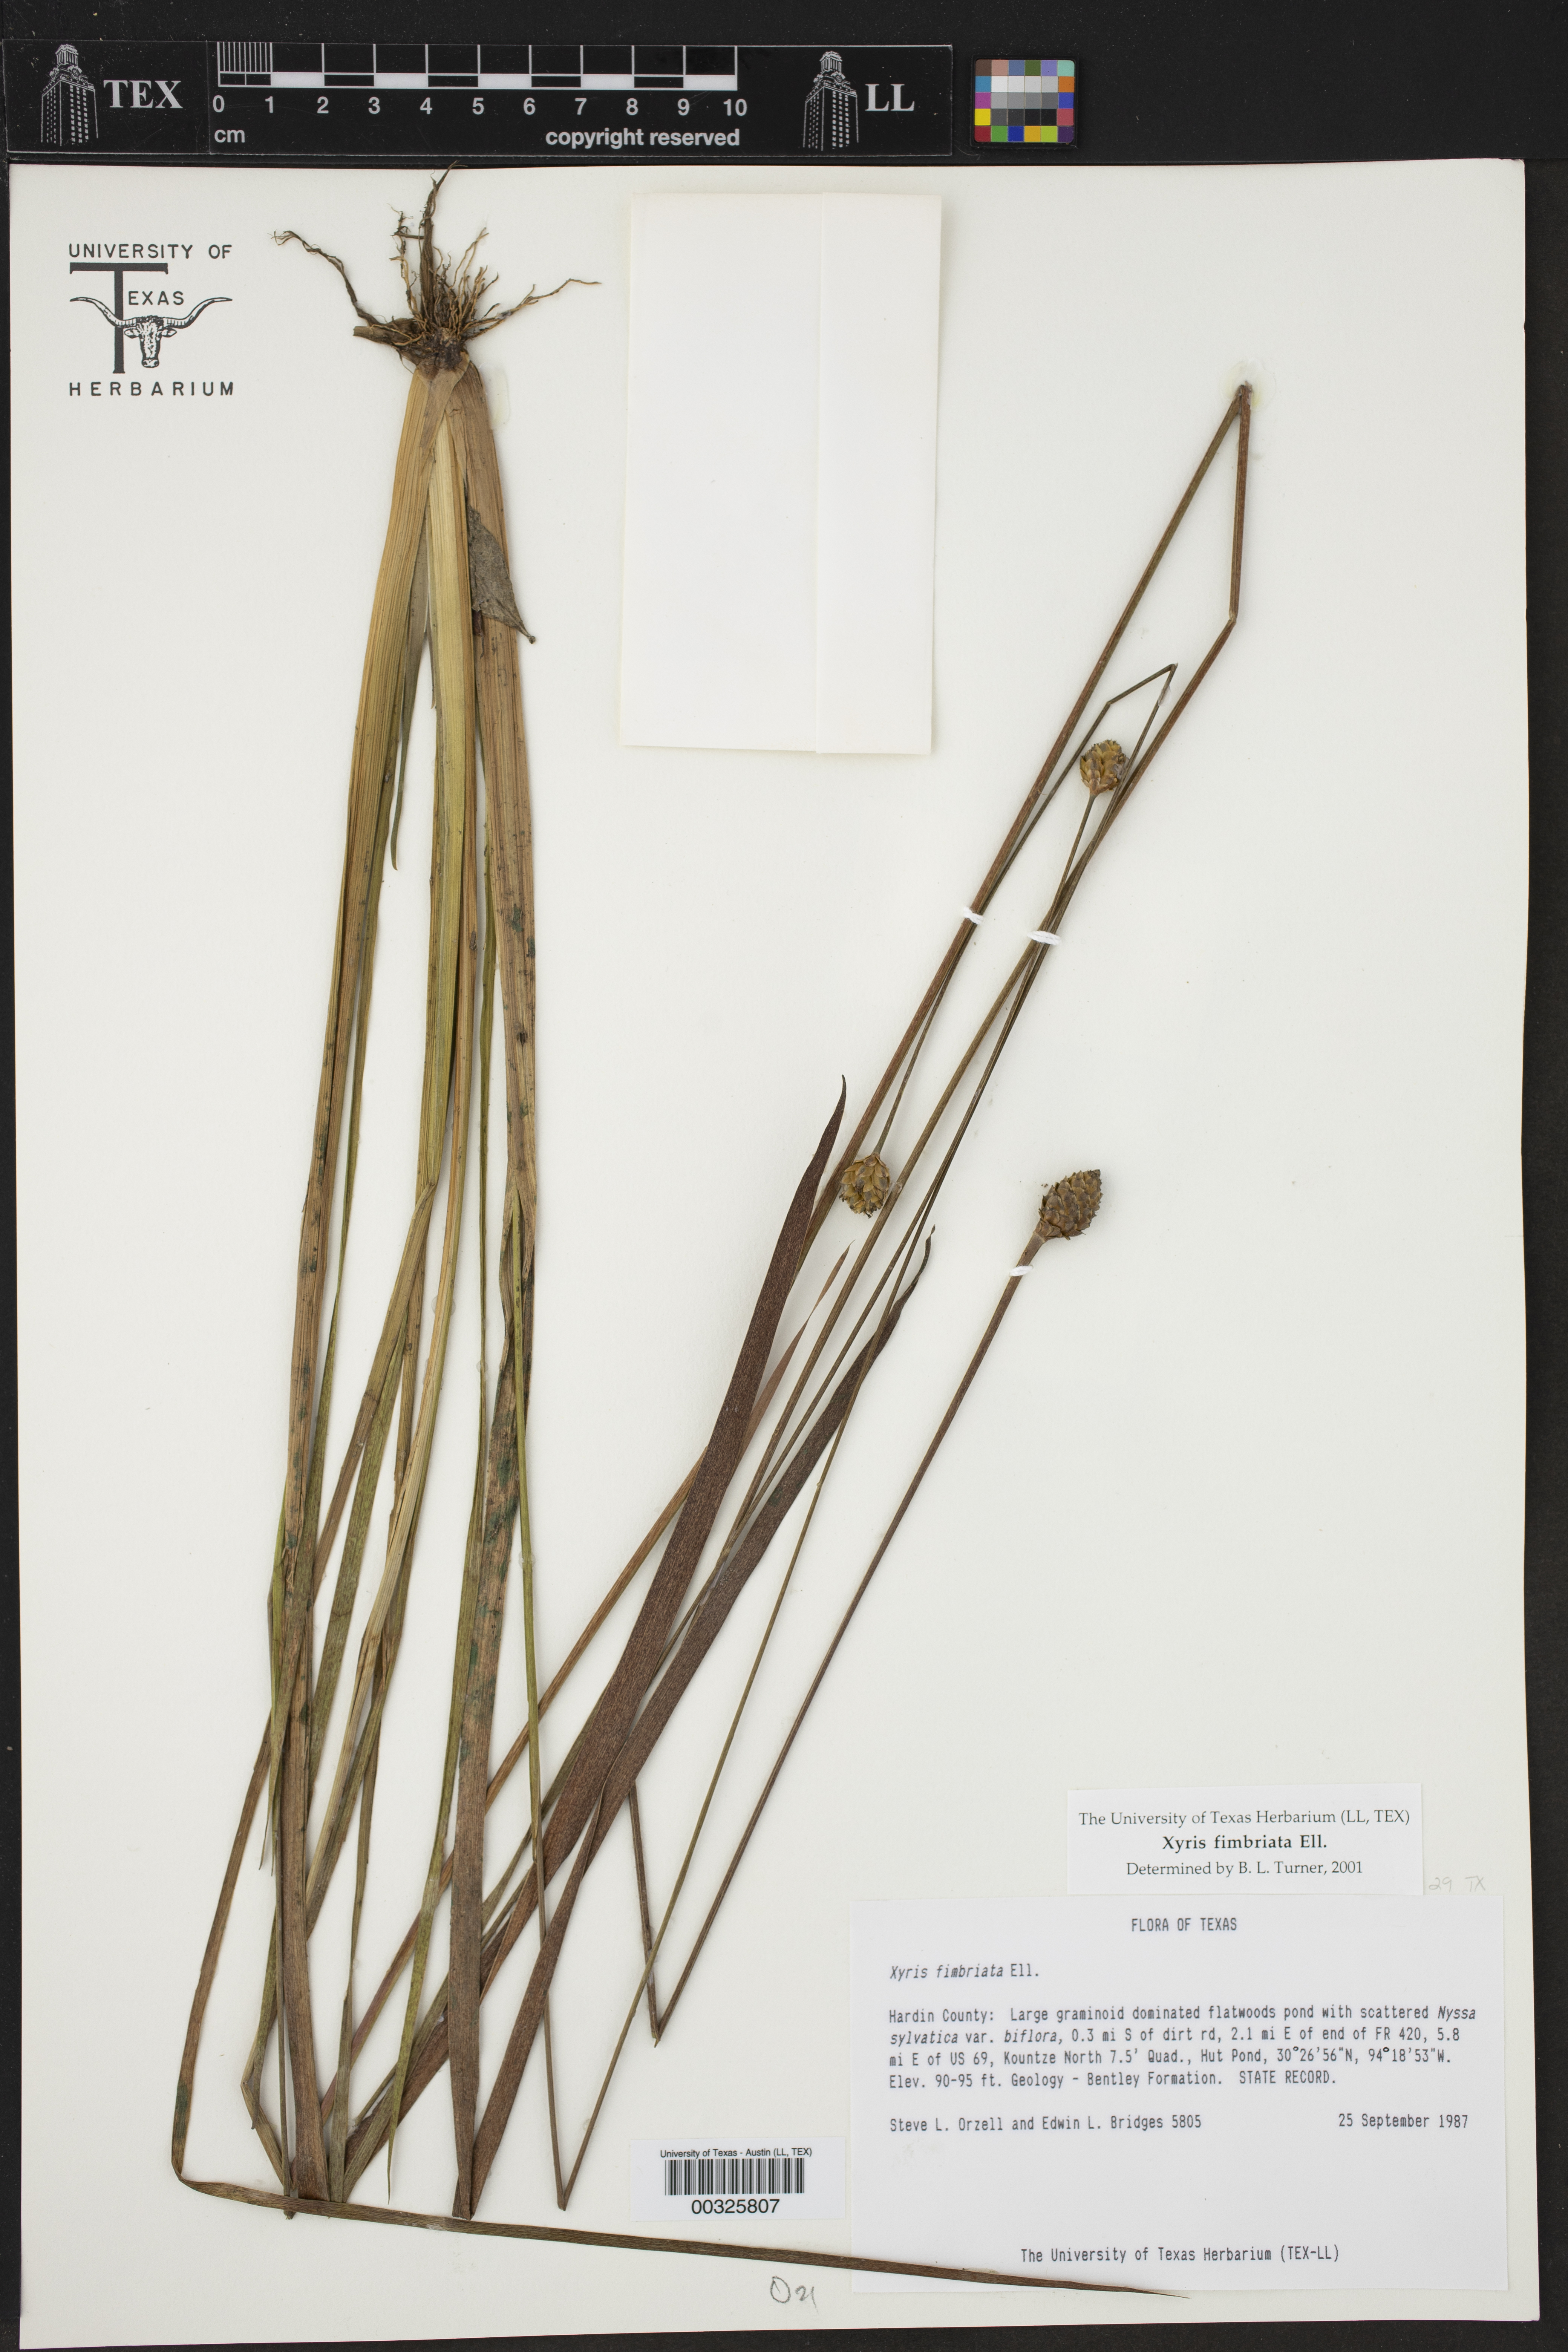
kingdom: Plantae
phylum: Tracheophyta
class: Liliopsida
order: Poales
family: Xyridaceae
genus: Xyris
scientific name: Xyris fimbriata
